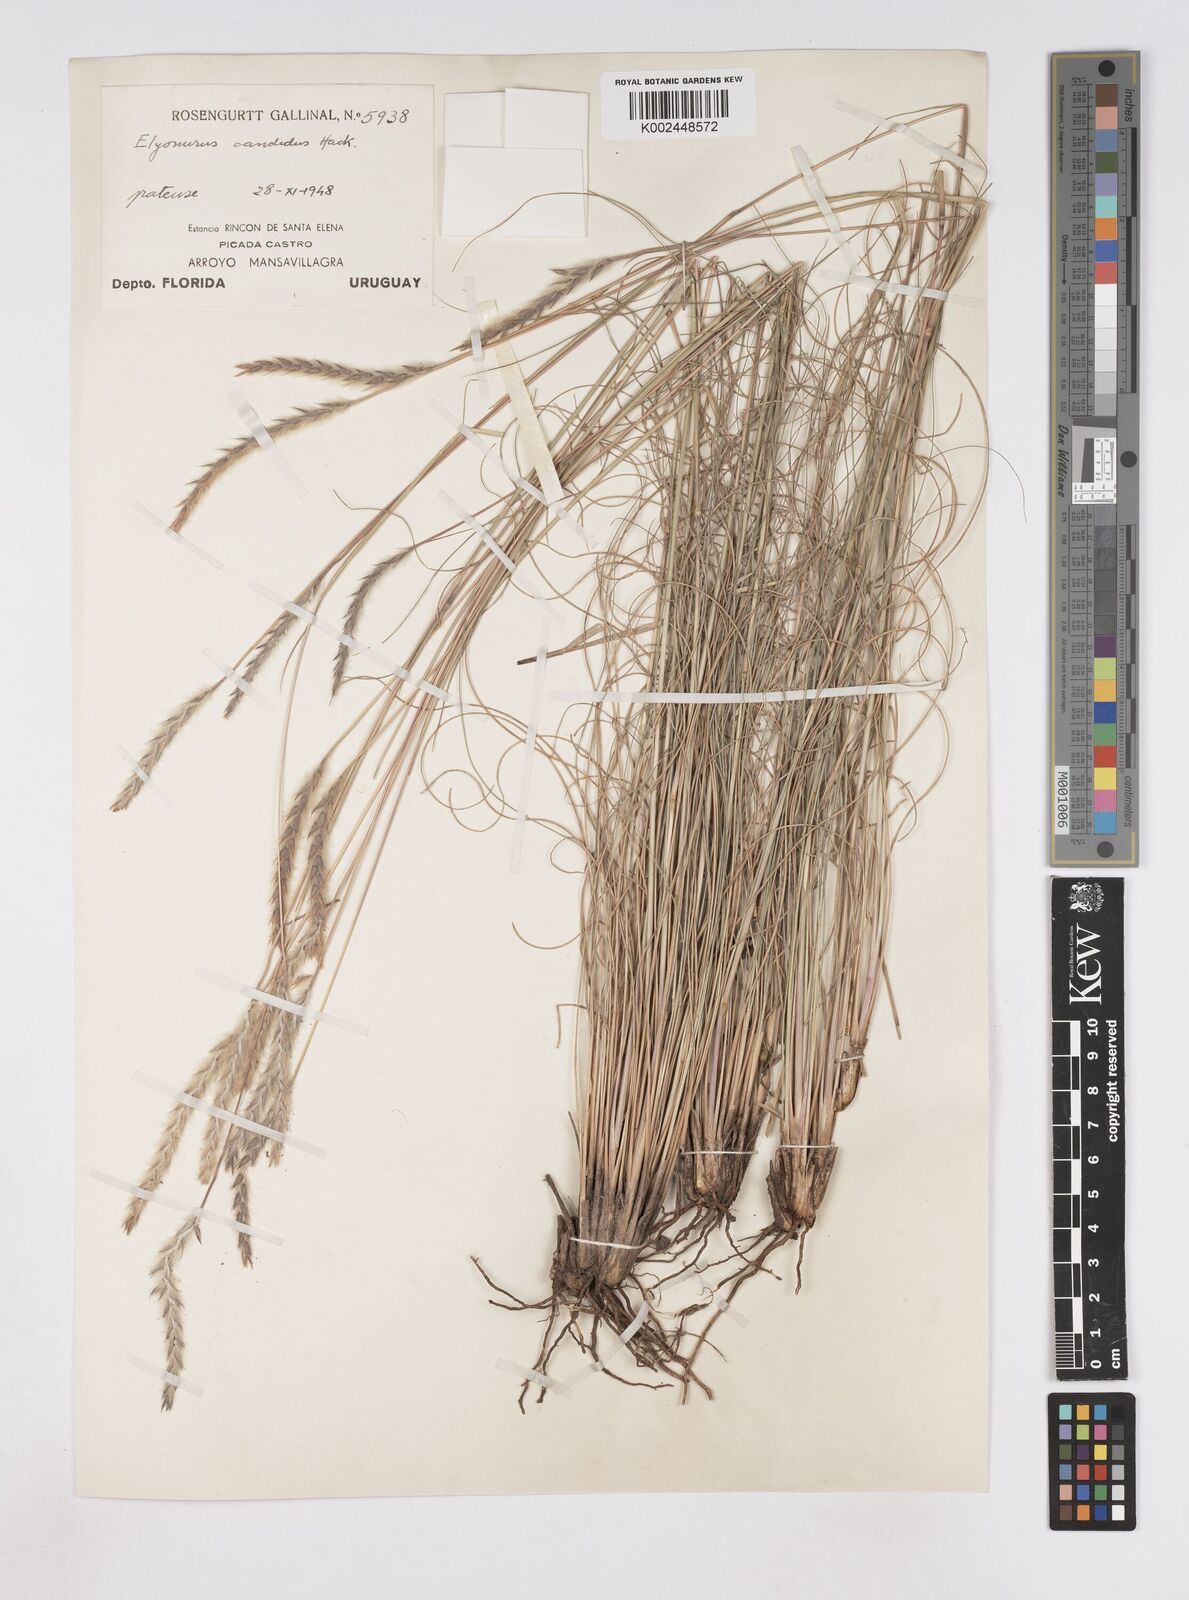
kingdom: Plantae
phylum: Tracheophyta
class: Liliopsida
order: Poales
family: Poaceae
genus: Elionurus
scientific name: Elionurus muticus
